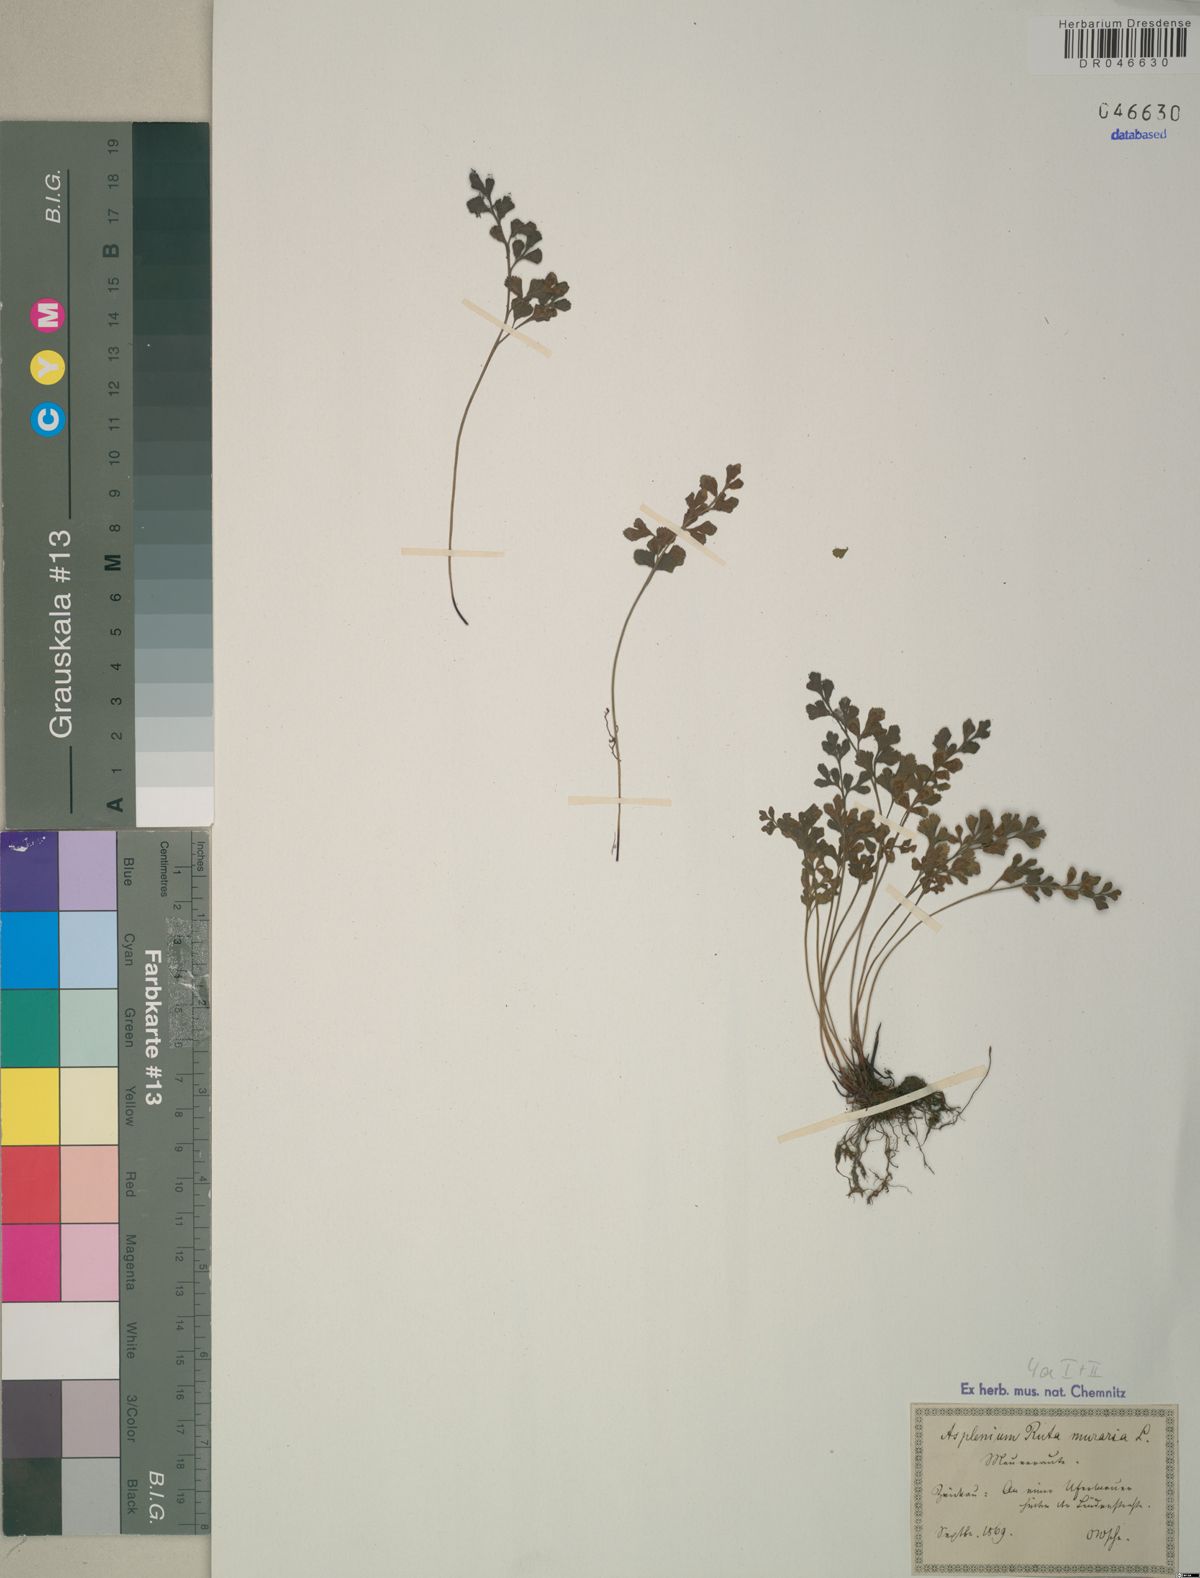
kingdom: Plantae
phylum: Tracheophyta
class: Polypodiopsida
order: Polypodiales
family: Aspleniaceae
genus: Asplenium
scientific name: Asplenium ruta-muraria
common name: Wall-rue
